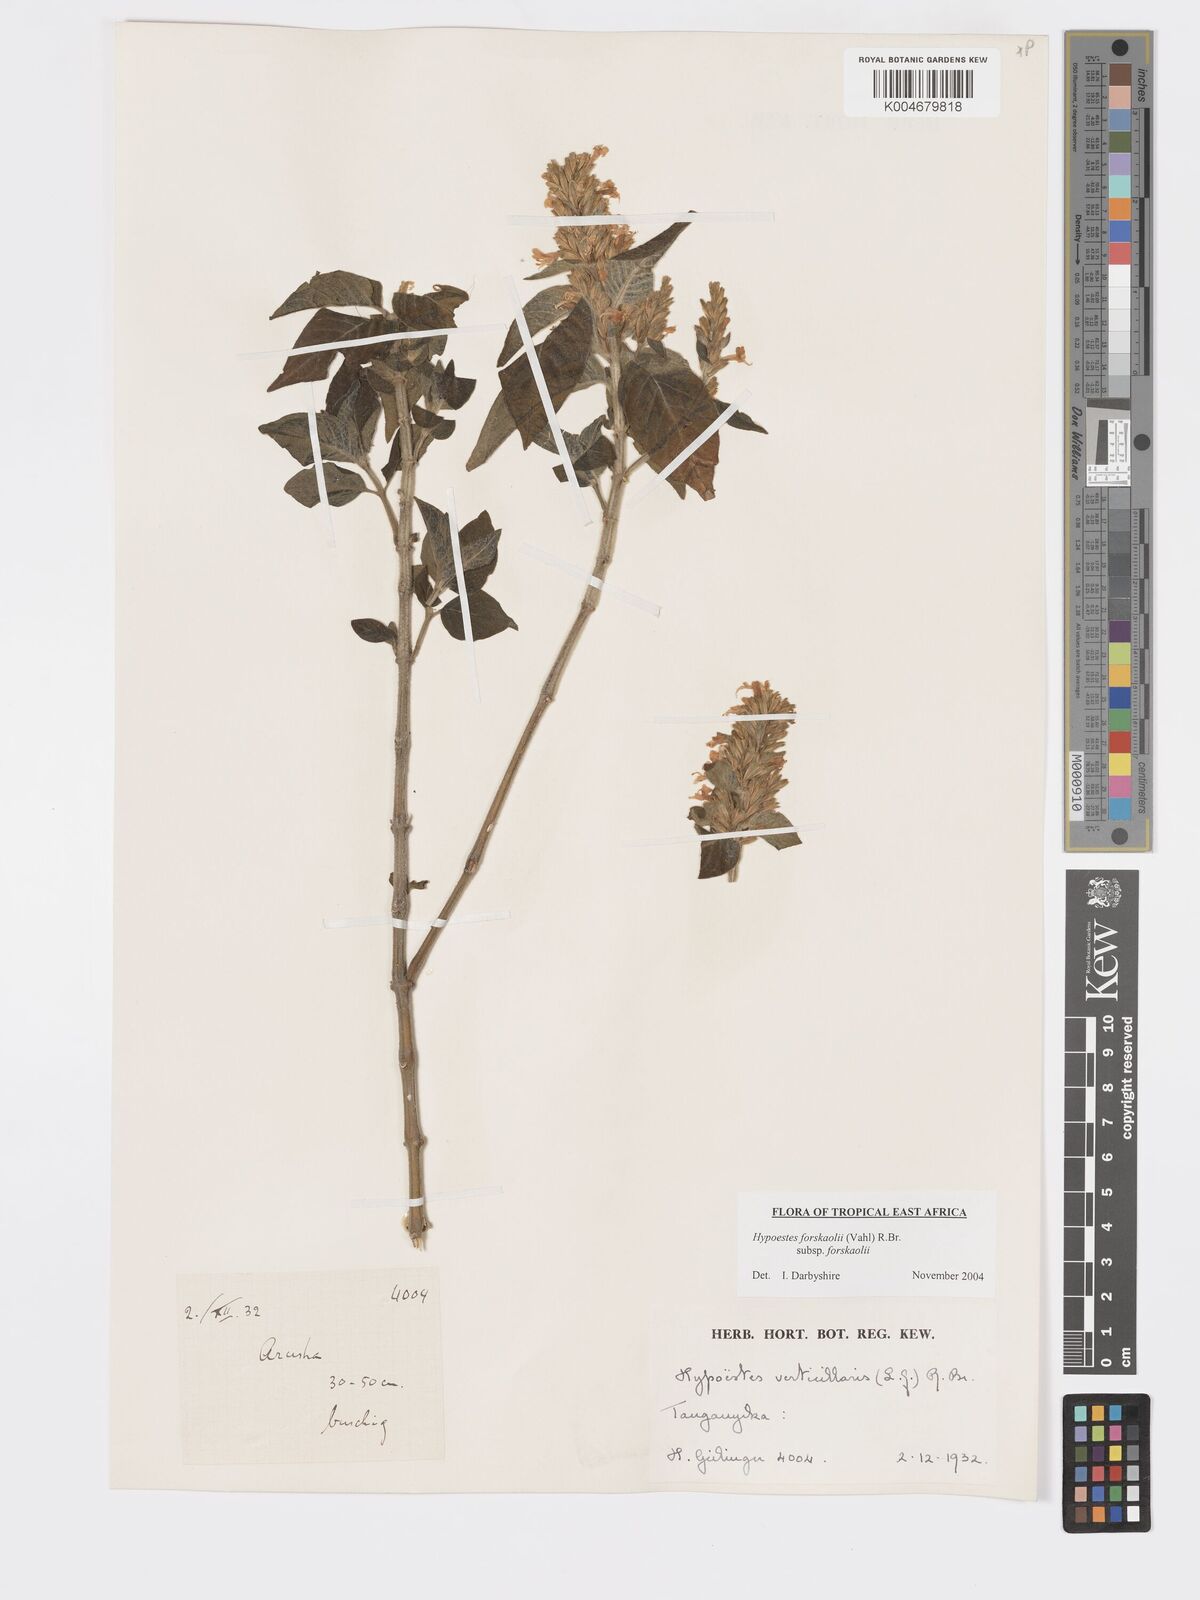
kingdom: Plantae
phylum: Tracheophyta
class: Magnoliopsida
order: Lamiales
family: Acanthaceae
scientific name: Acanthaceae
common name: Acanthaceae
